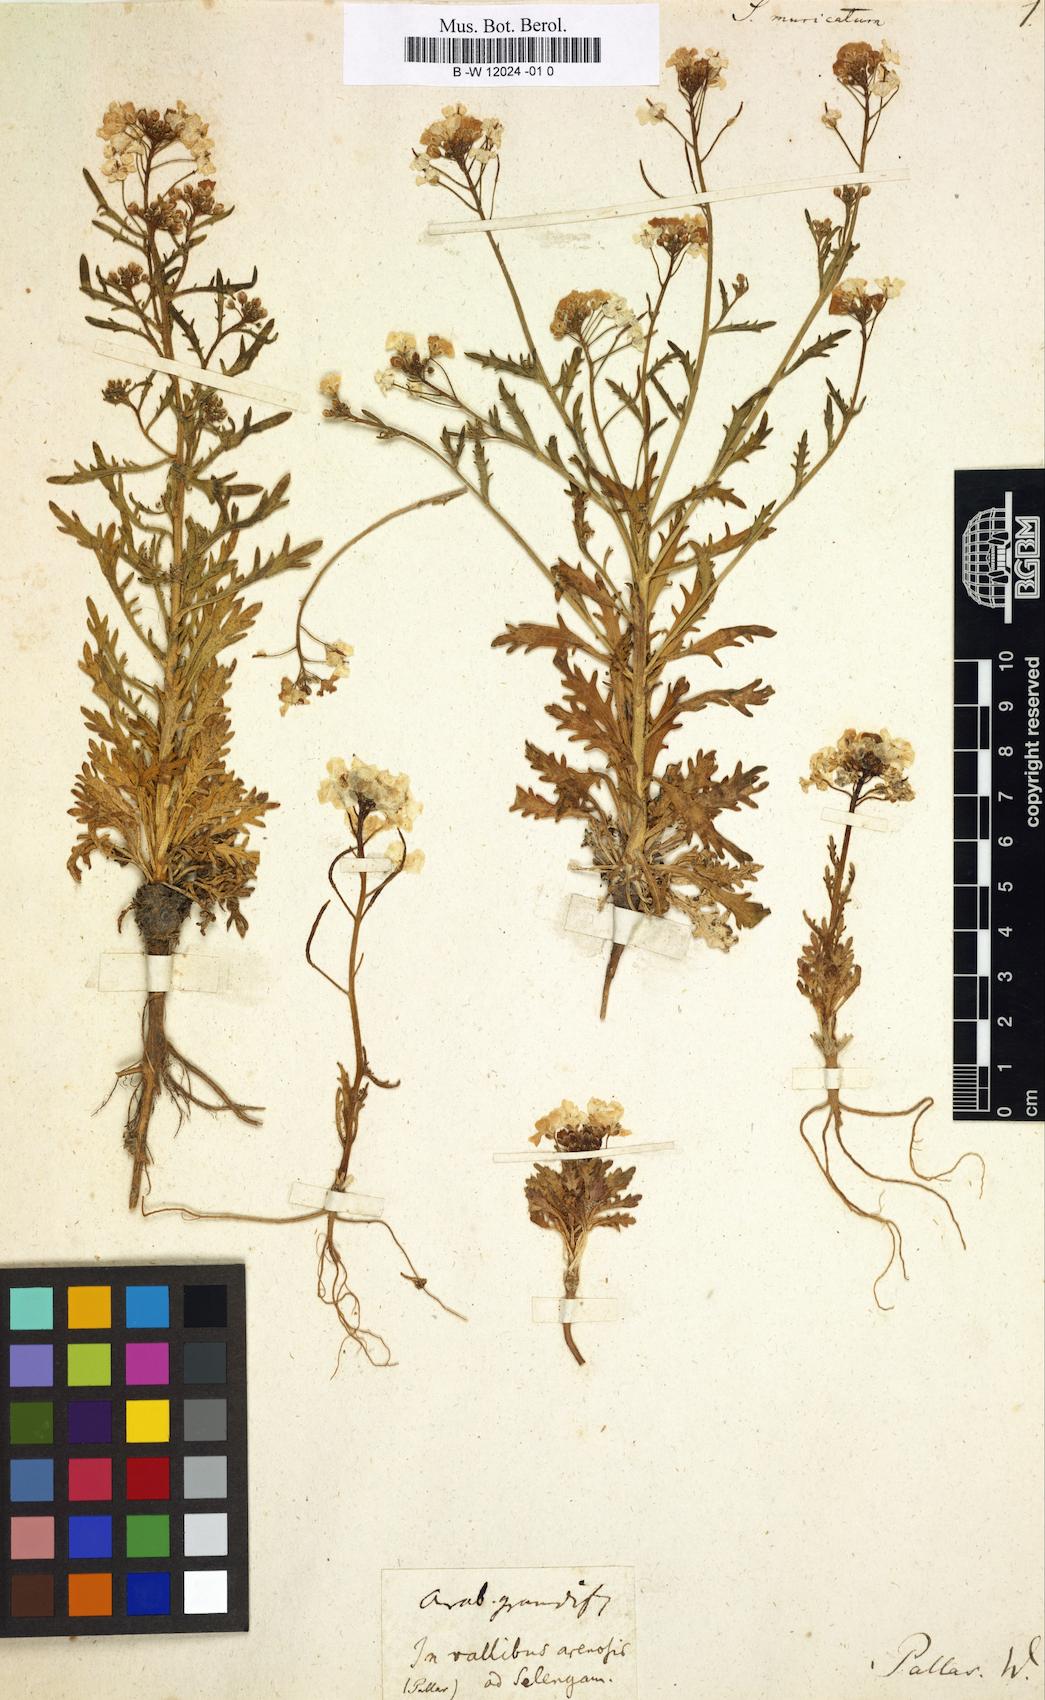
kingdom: Plantae
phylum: Tracheophyta
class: Magnoliopsida
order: Brassicales
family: Brassicaceae
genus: Dontostemon
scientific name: Dontostemon pinnatifidus
